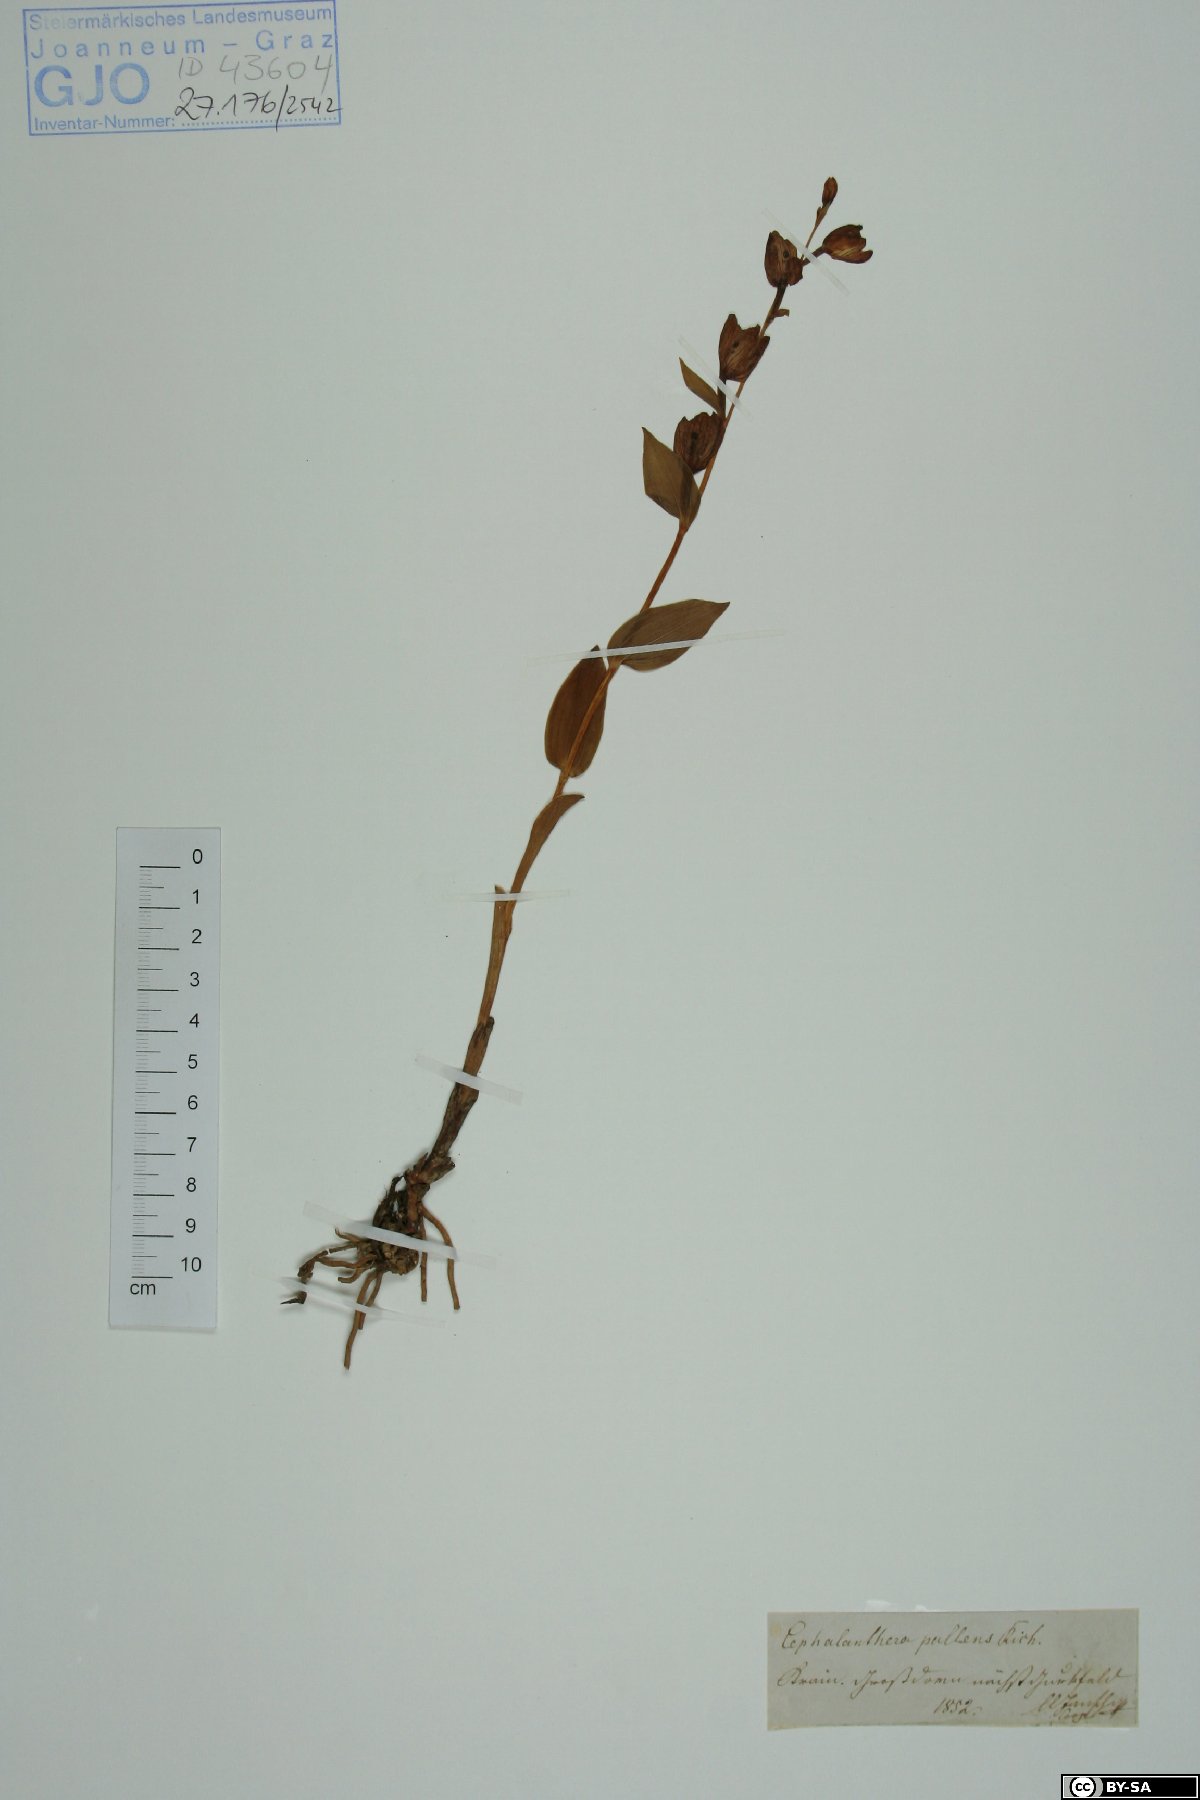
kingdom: Plantae
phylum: Tracheophyta
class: Liliopsida
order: Asparagales
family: Orchidaceae
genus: Cephalanthera
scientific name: Cephalanthera longifolia
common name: Narrow-leaved helleborine
